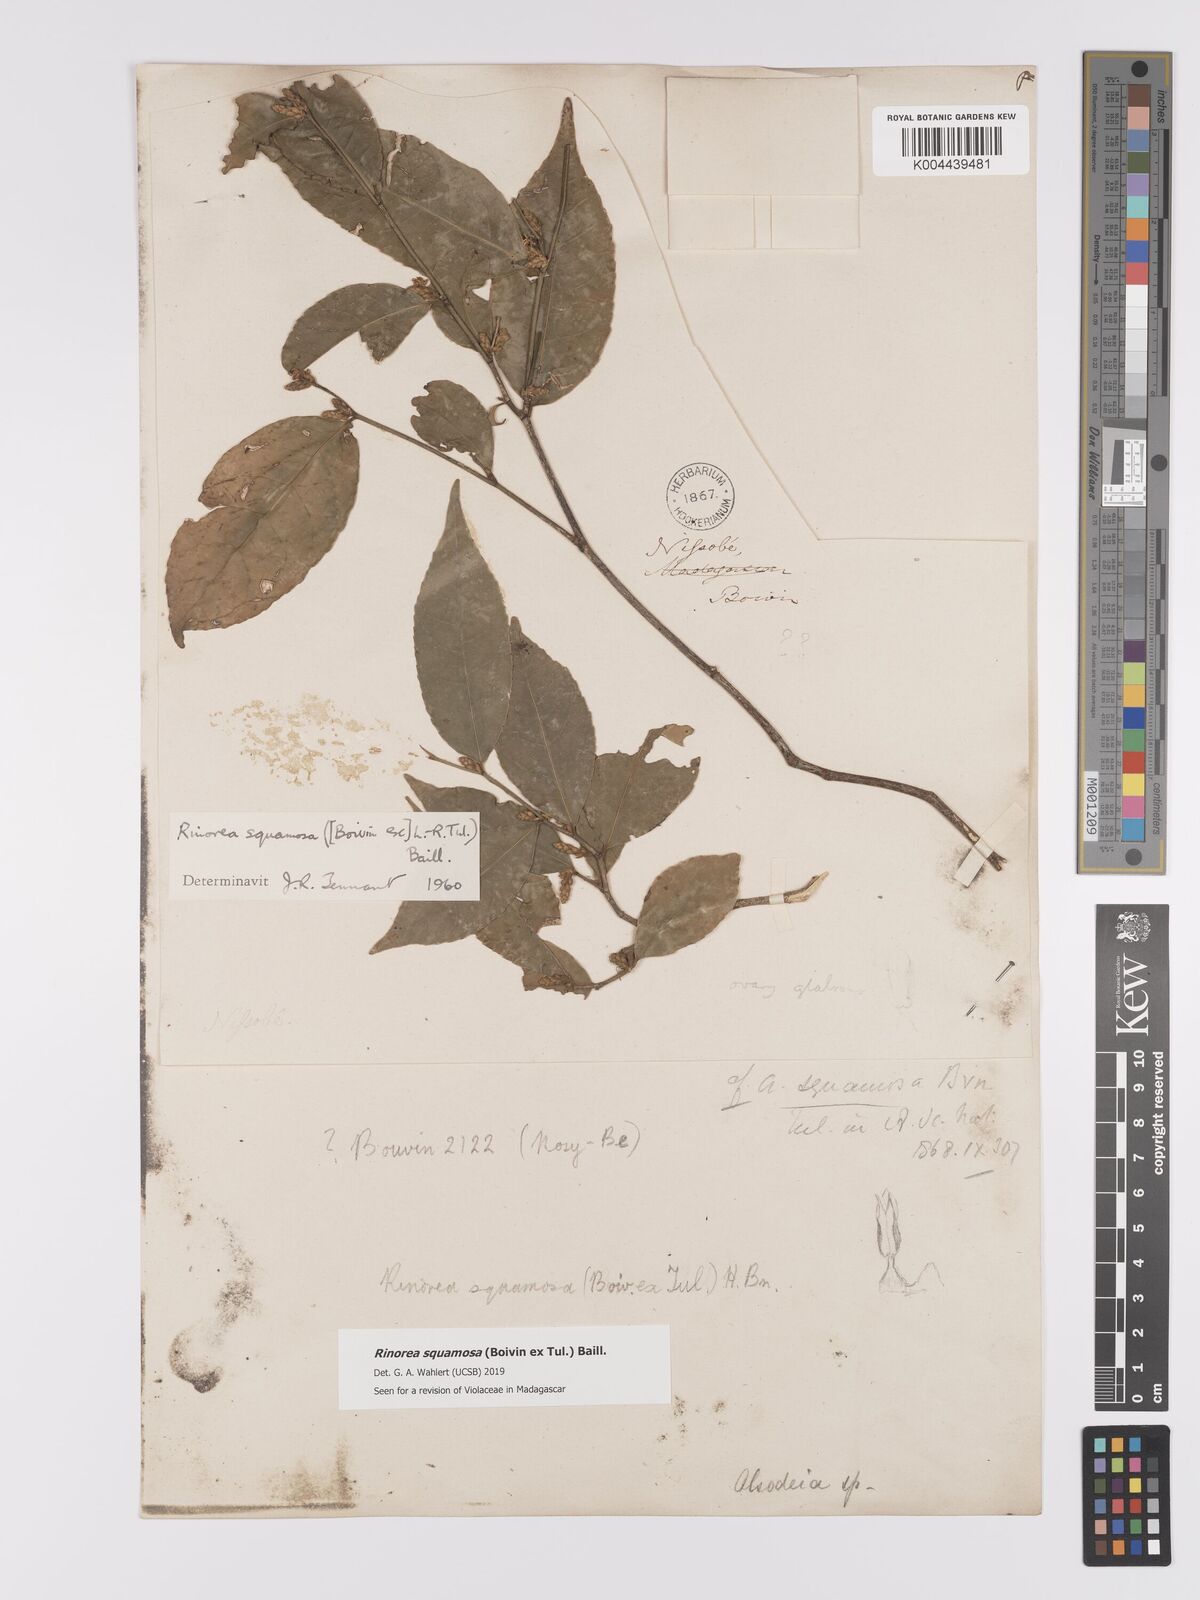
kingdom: Plantae
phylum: Tracheophyta
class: Magnoliopsida
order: Malpighiales
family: Violaceae
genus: Rinorea
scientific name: Rinorea squamosa
